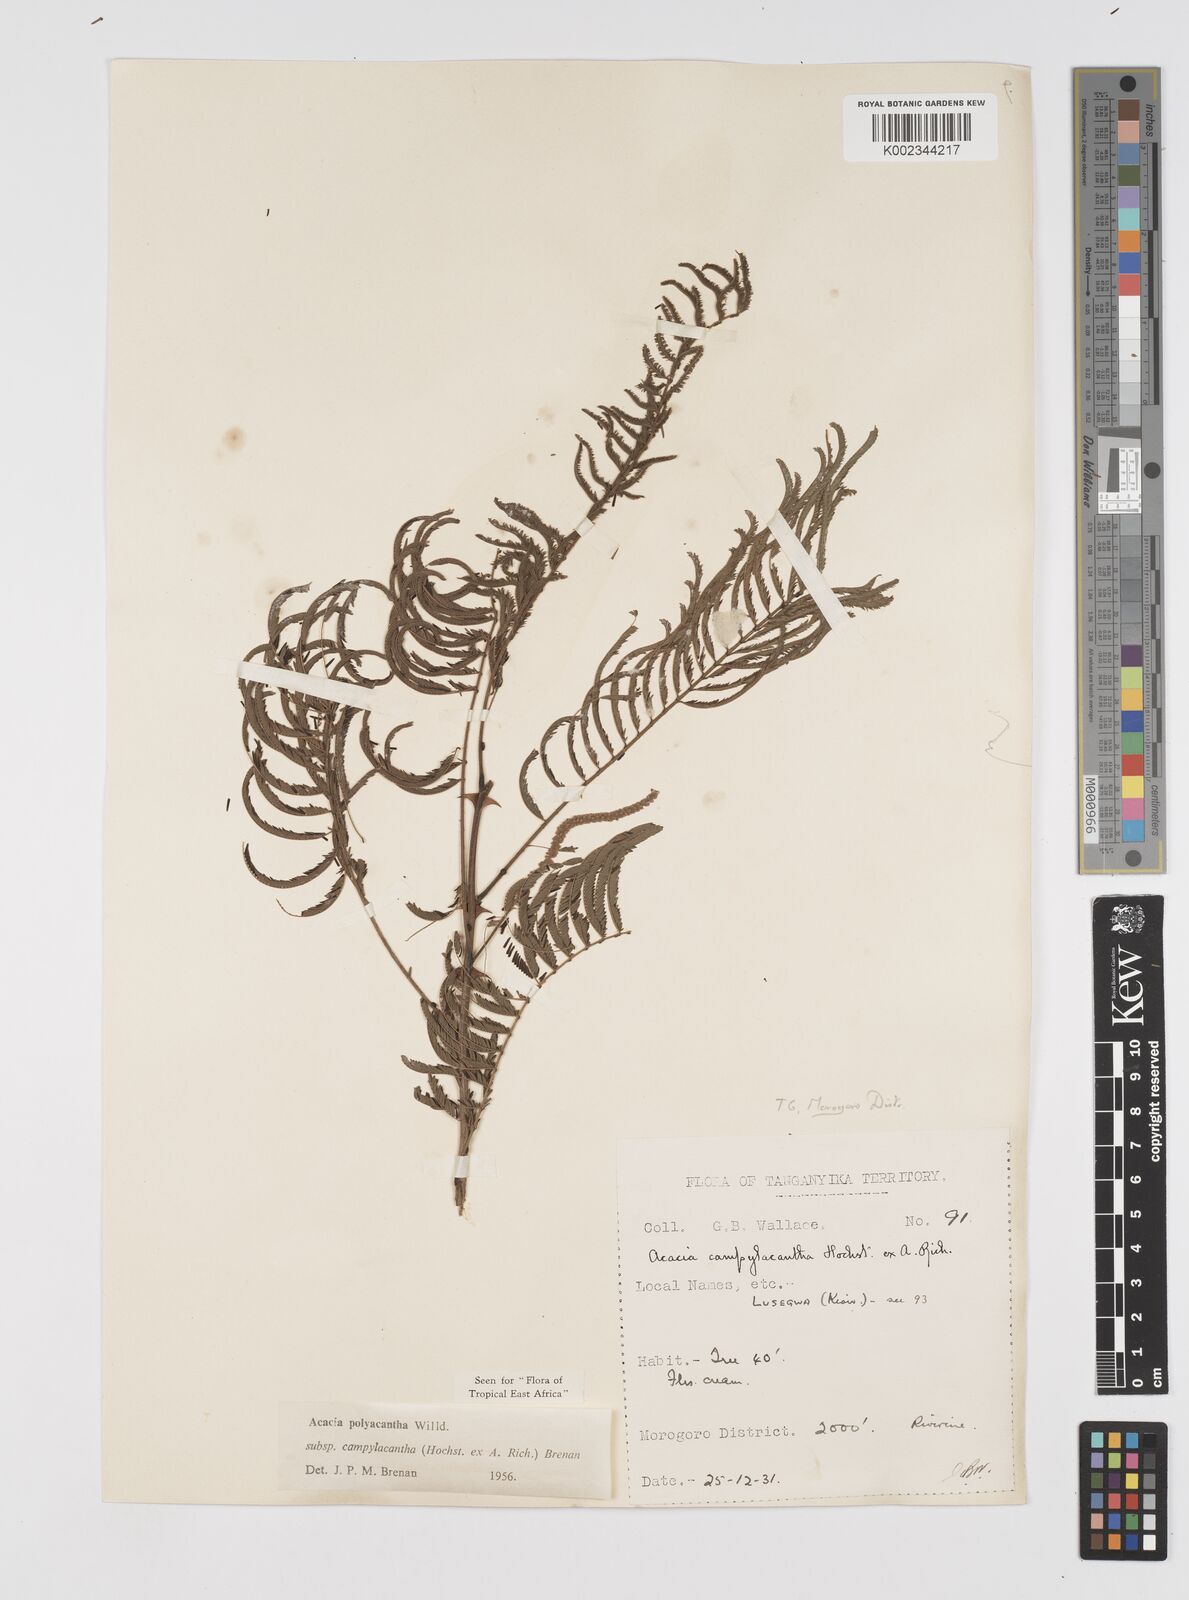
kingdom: Plantae
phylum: Tracheophyta
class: Magnoliopsida
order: Fabales
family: Fabaceae
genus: Senegalia
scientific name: Senegalia polyacantha
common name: Whitethorn
